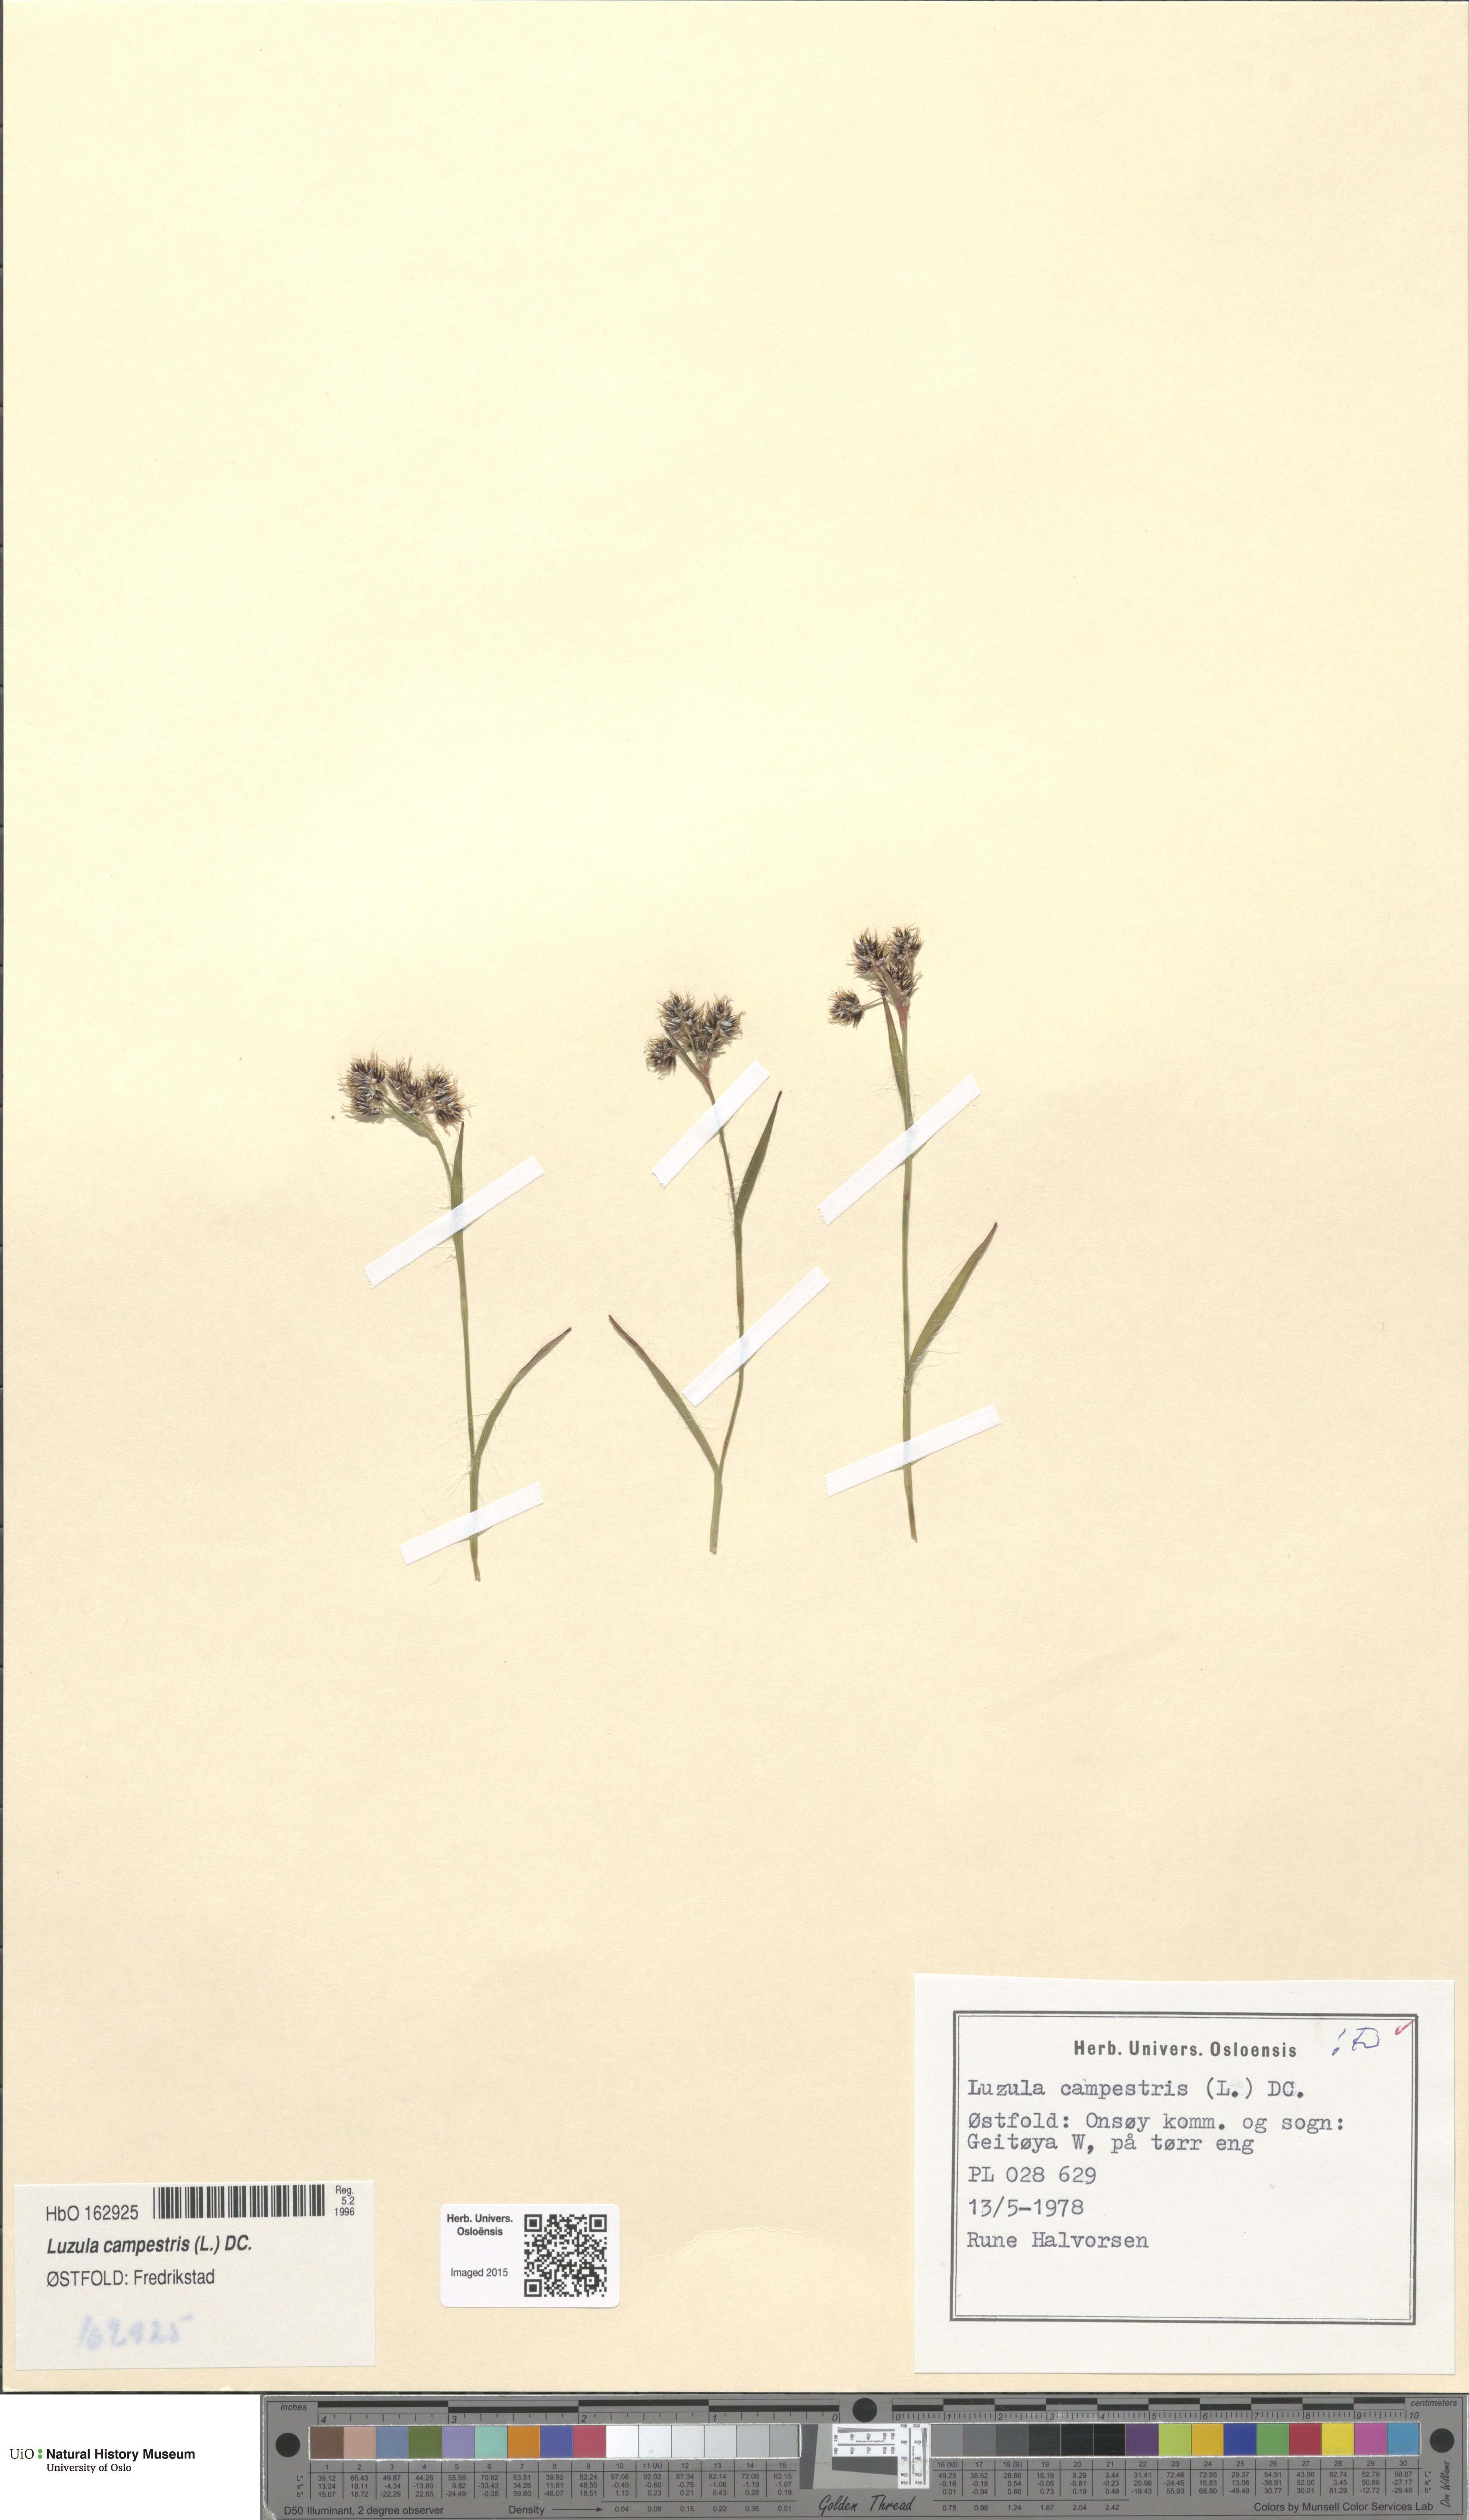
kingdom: Plantae
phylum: Tracheophyta
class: Liliopsida
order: Poales
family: Juncaceae
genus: Luzula
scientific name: Luzula campestris
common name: Field wood-rush
